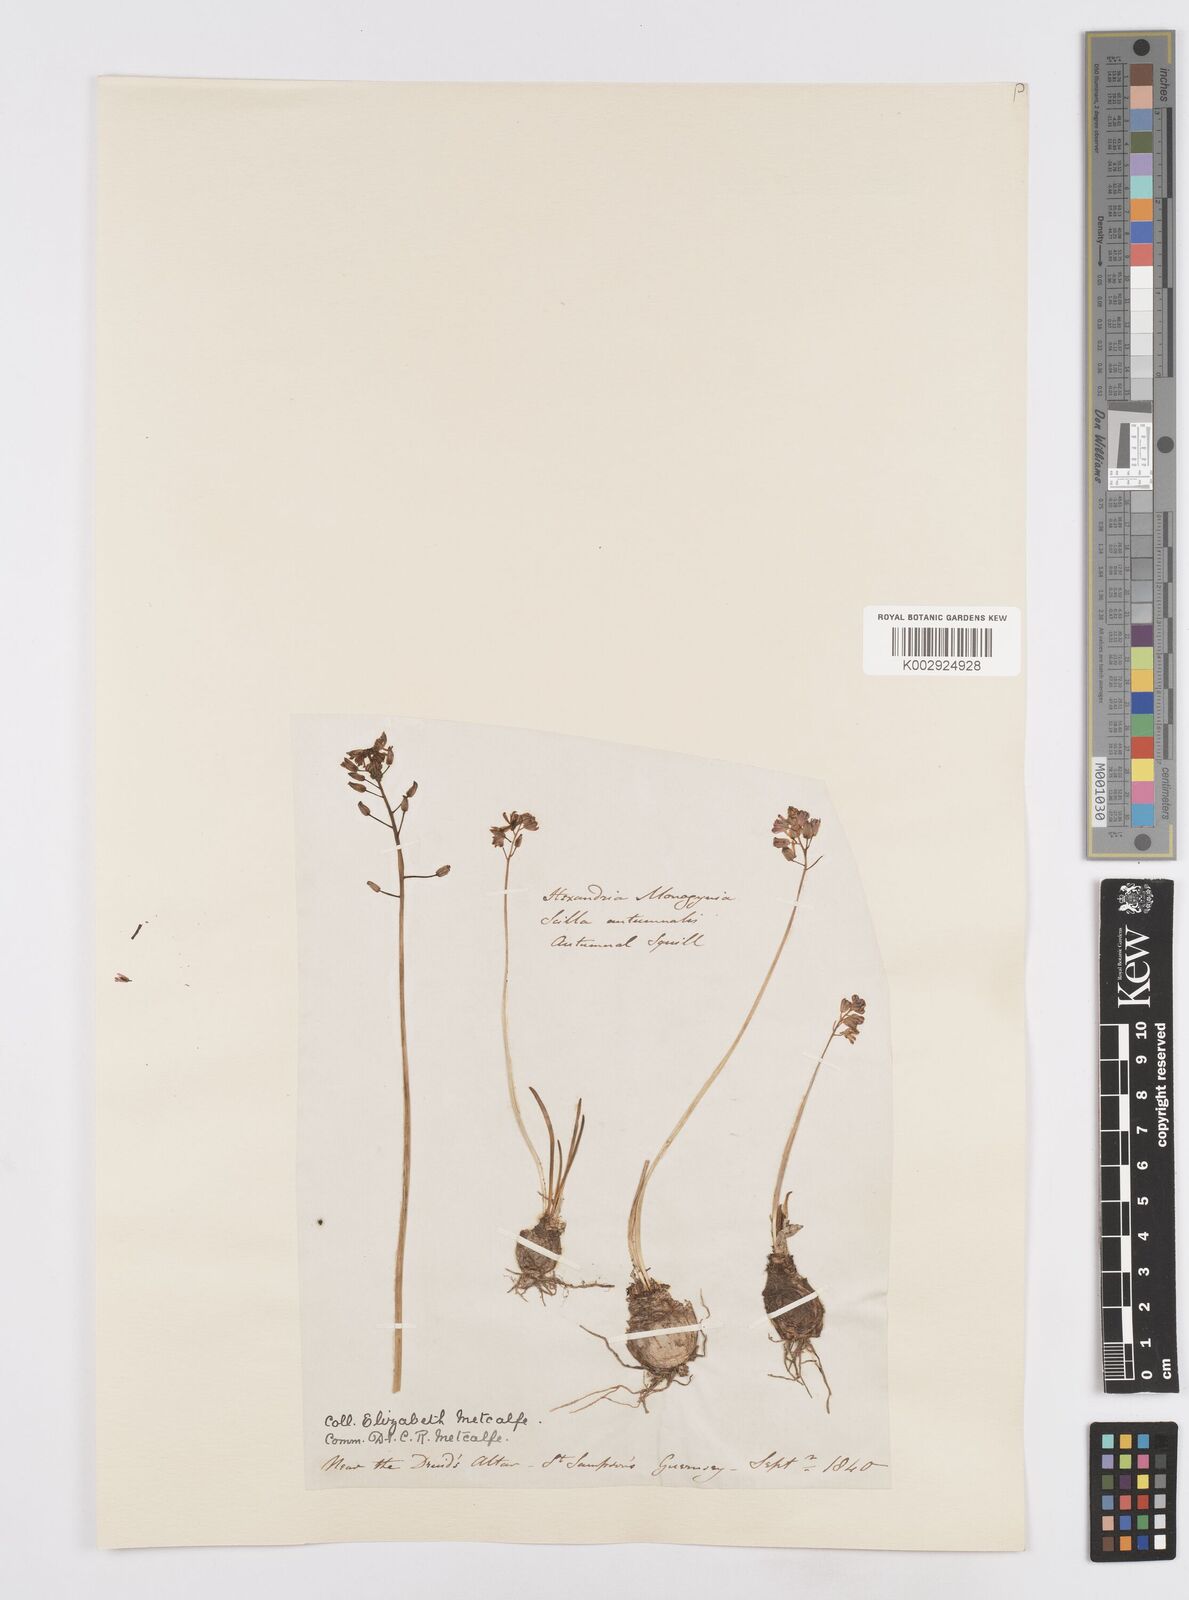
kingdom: Plantae
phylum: Tracheophyta
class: Liliopsida
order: Asparagales
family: Asparagaceae
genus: Prospero
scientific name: Prospero autumnale
